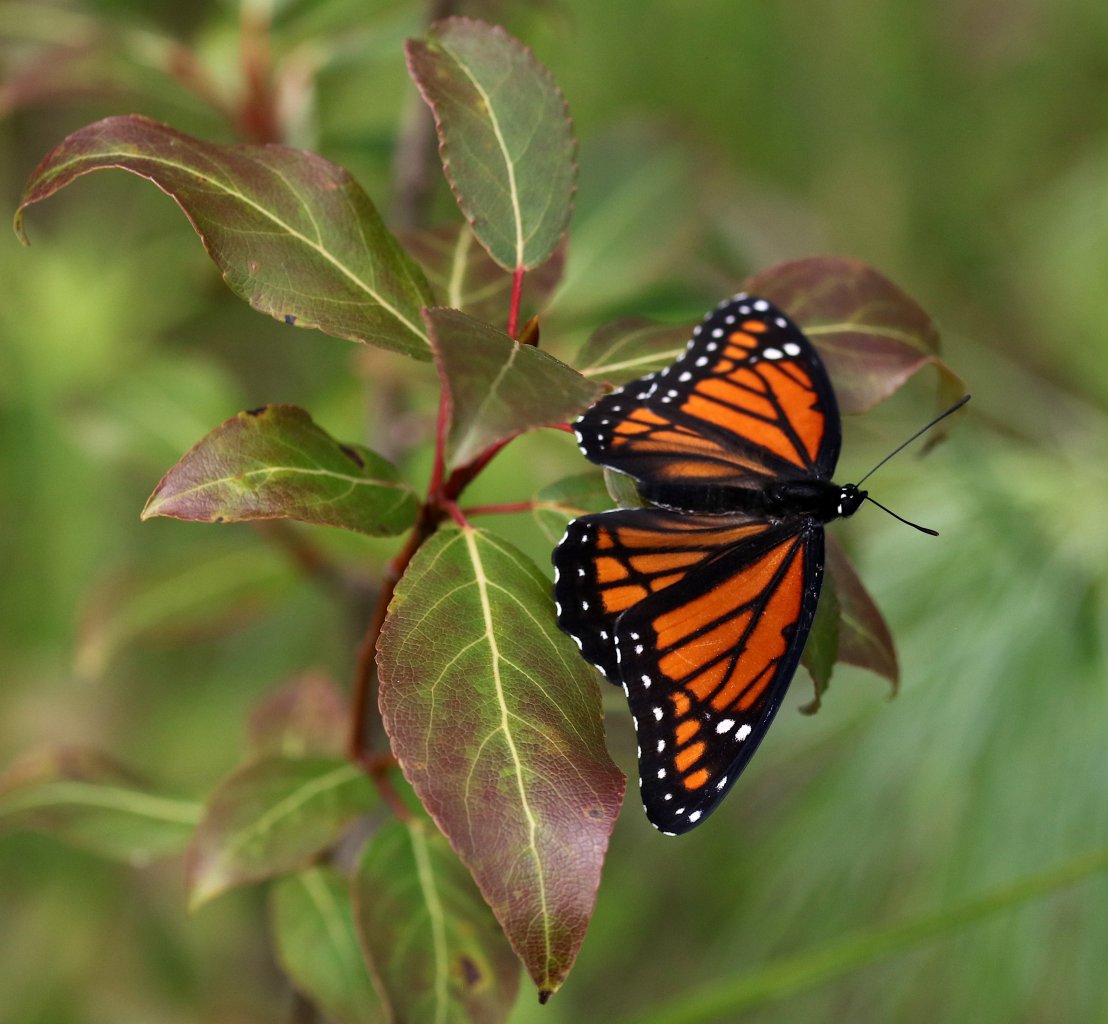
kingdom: Animalia
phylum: Arthropoda
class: Insecta
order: Lepidoptera
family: Nymphalidae
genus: Limenitis
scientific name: Limenitis archippus
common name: Viceroy
